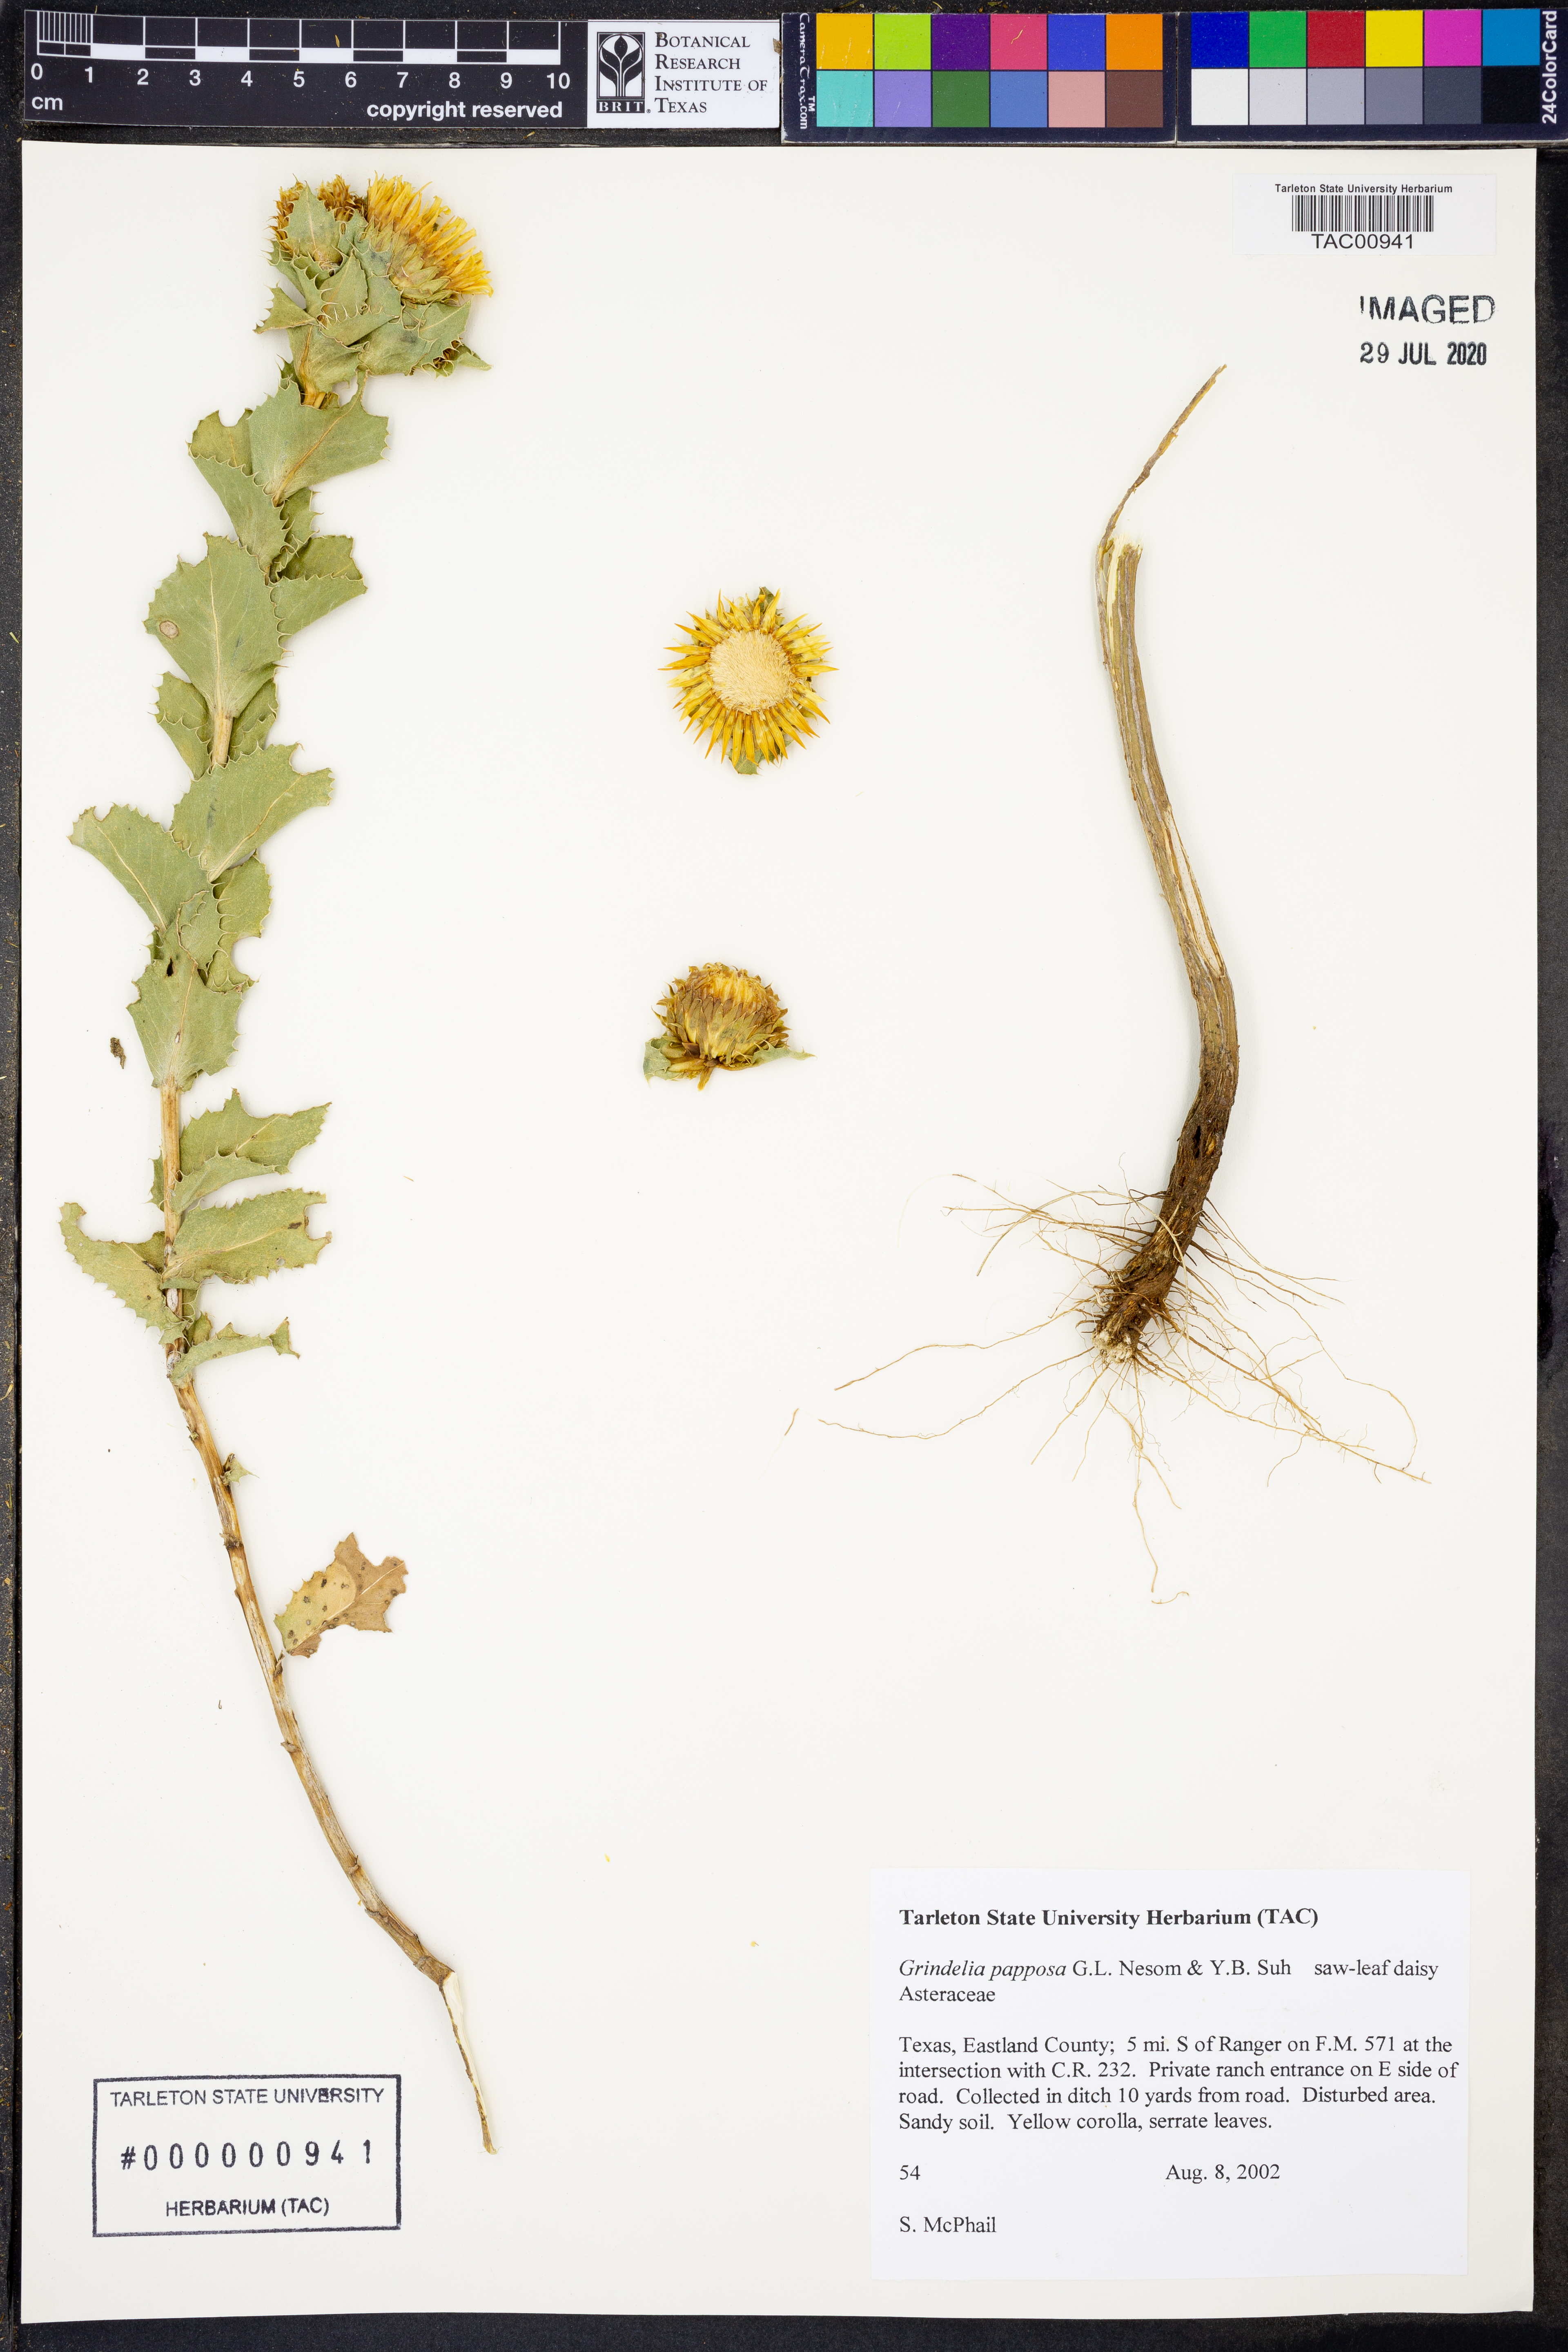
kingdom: Plantae
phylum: Tracheophyta
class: Magnoliopsida
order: Asterales
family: Asteraceae
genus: Grindelia
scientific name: Grindelia ciliata
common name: Goldenweed
